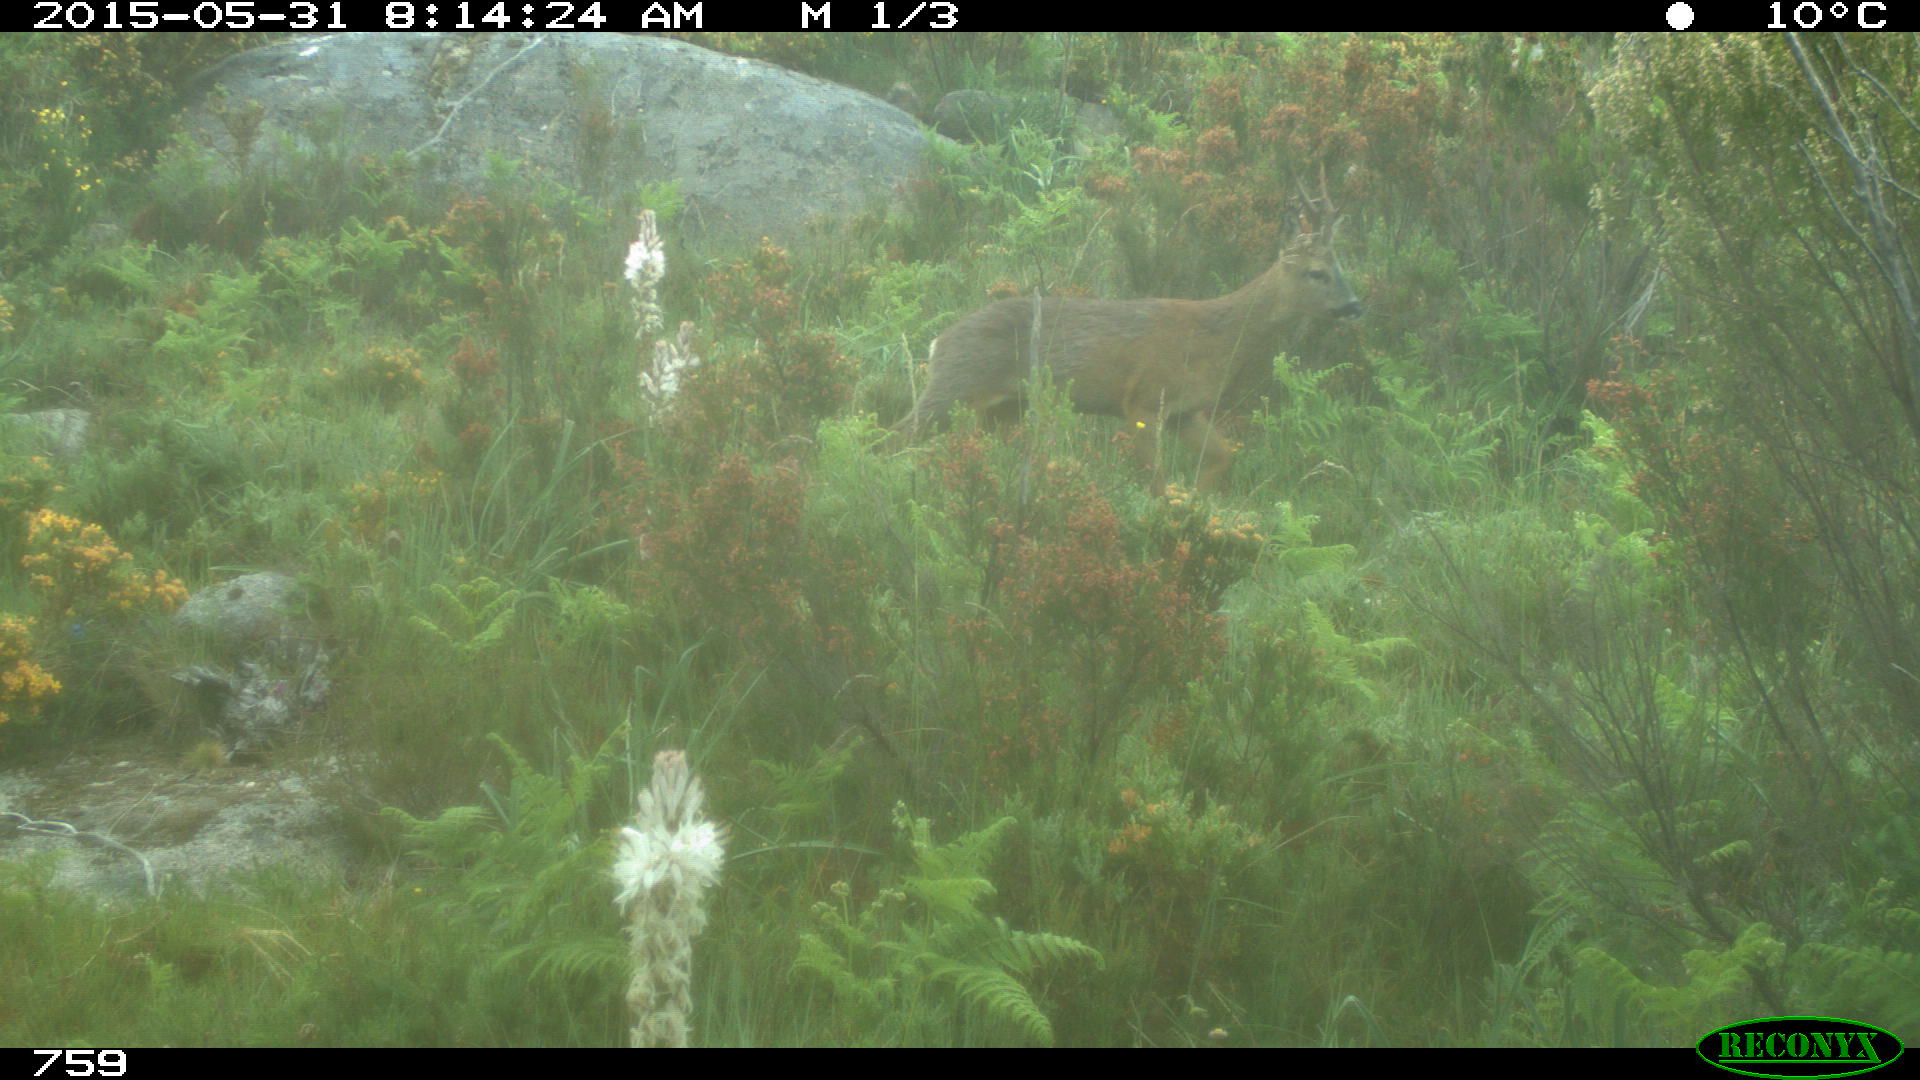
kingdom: Animalia
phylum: Chordata
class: Mammalia
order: Artiodactyla
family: Cervidae
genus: Capreolus
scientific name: Capreolus capreolus
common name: Western roe deer
